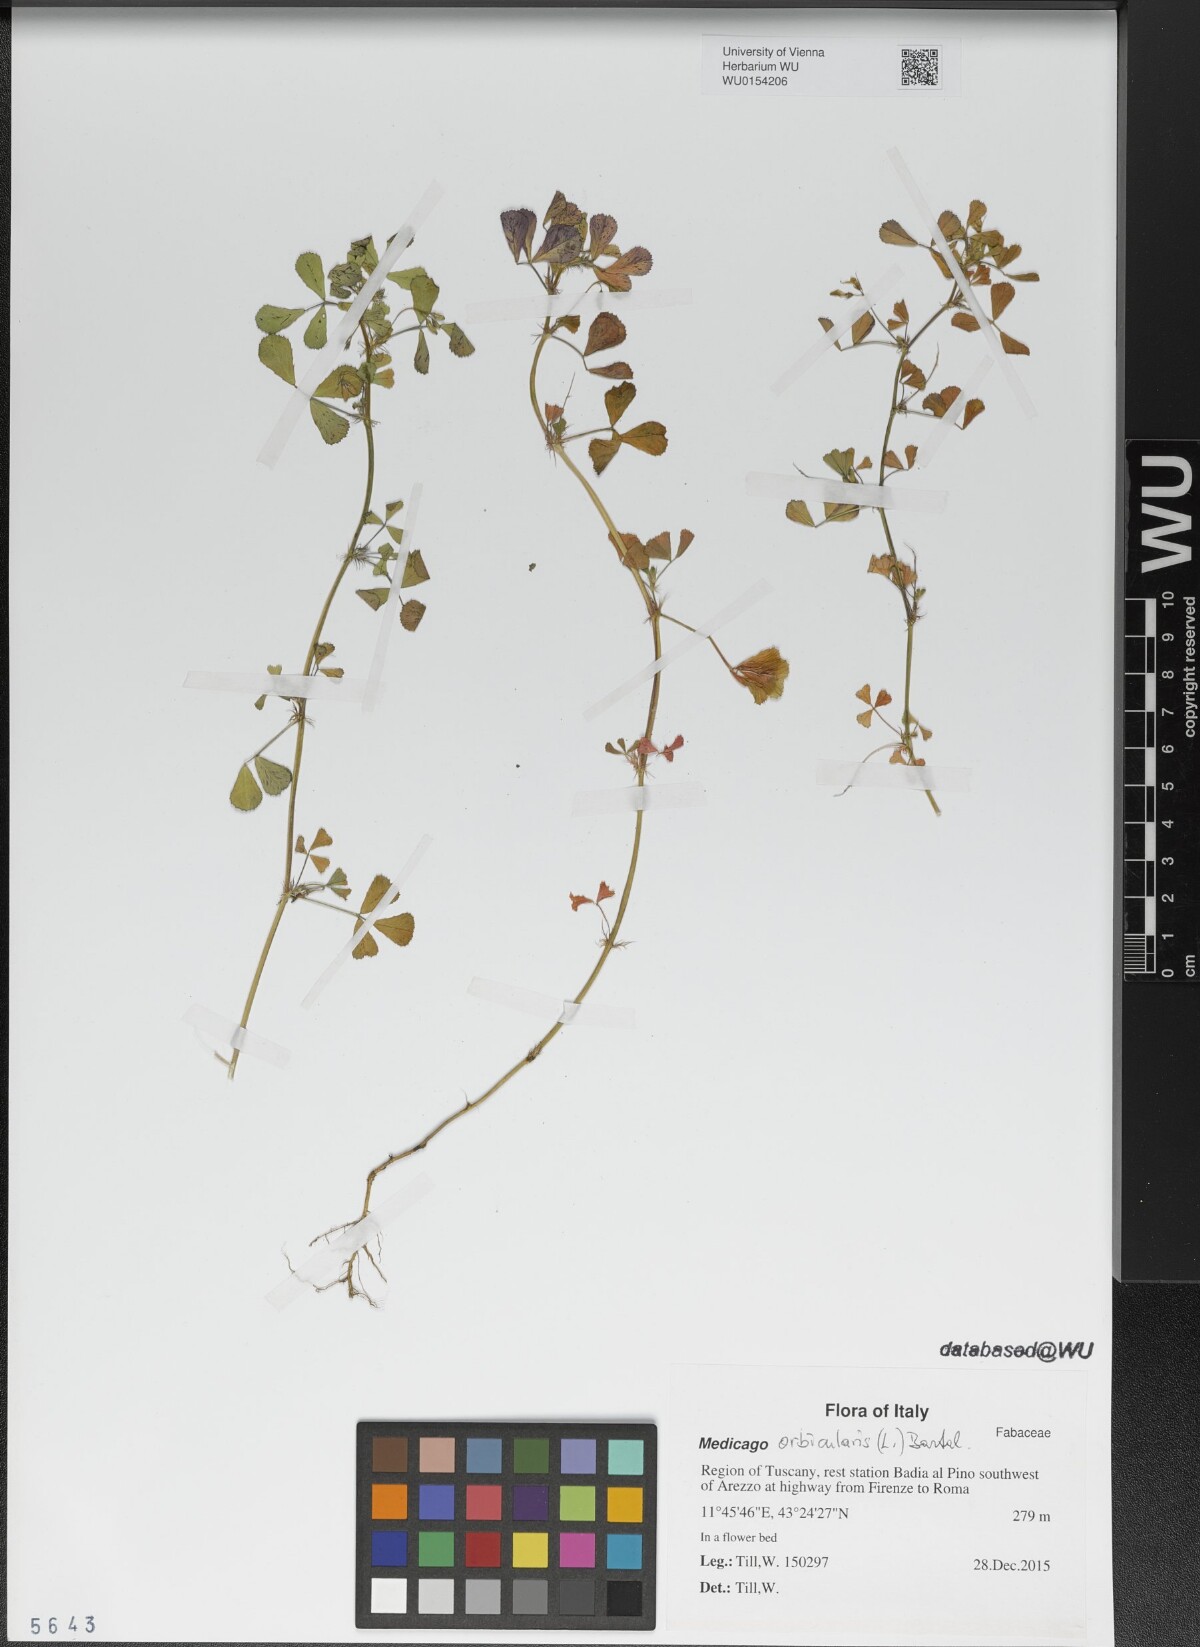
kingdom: Plantae
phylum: Tracheophyta
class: Magnoliopsida
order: Fabales
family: Fabaceae
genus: Medicago
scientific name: Medicago orbicularis
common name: Button medick
